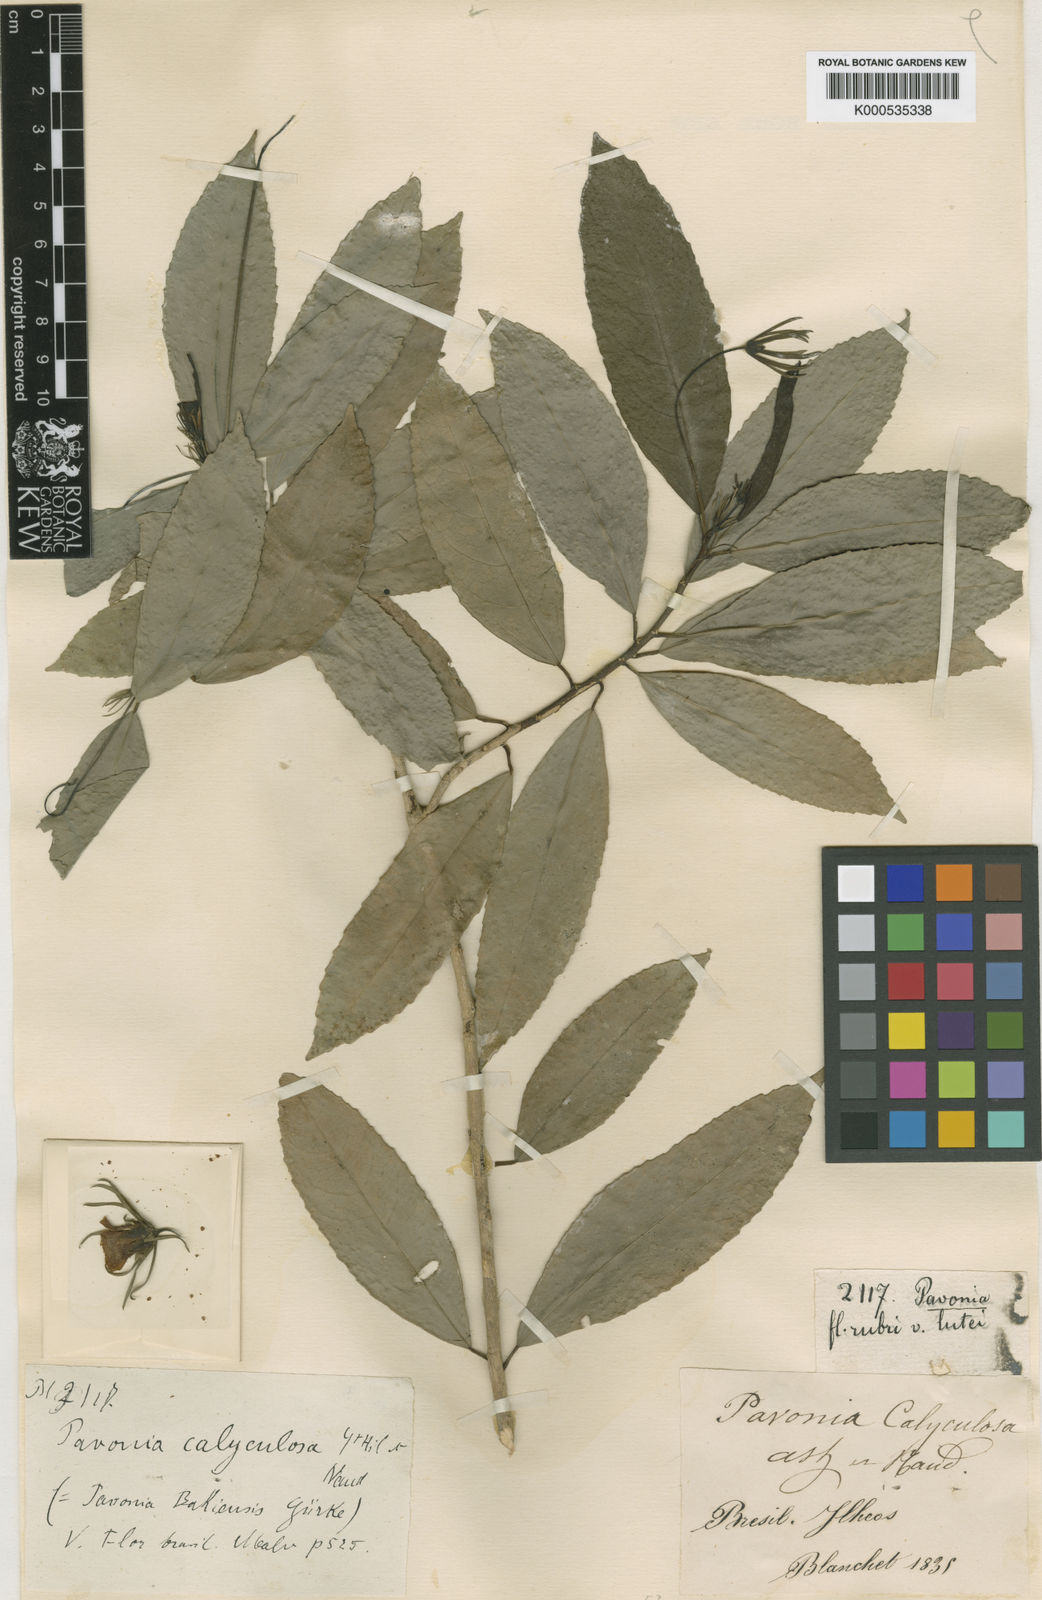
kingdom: Plantae
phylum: Tracheophyta
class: Magnoliopsida
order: Malvales
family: Malvaceae
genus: Pavonia
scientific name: Pavonia calyculosa
